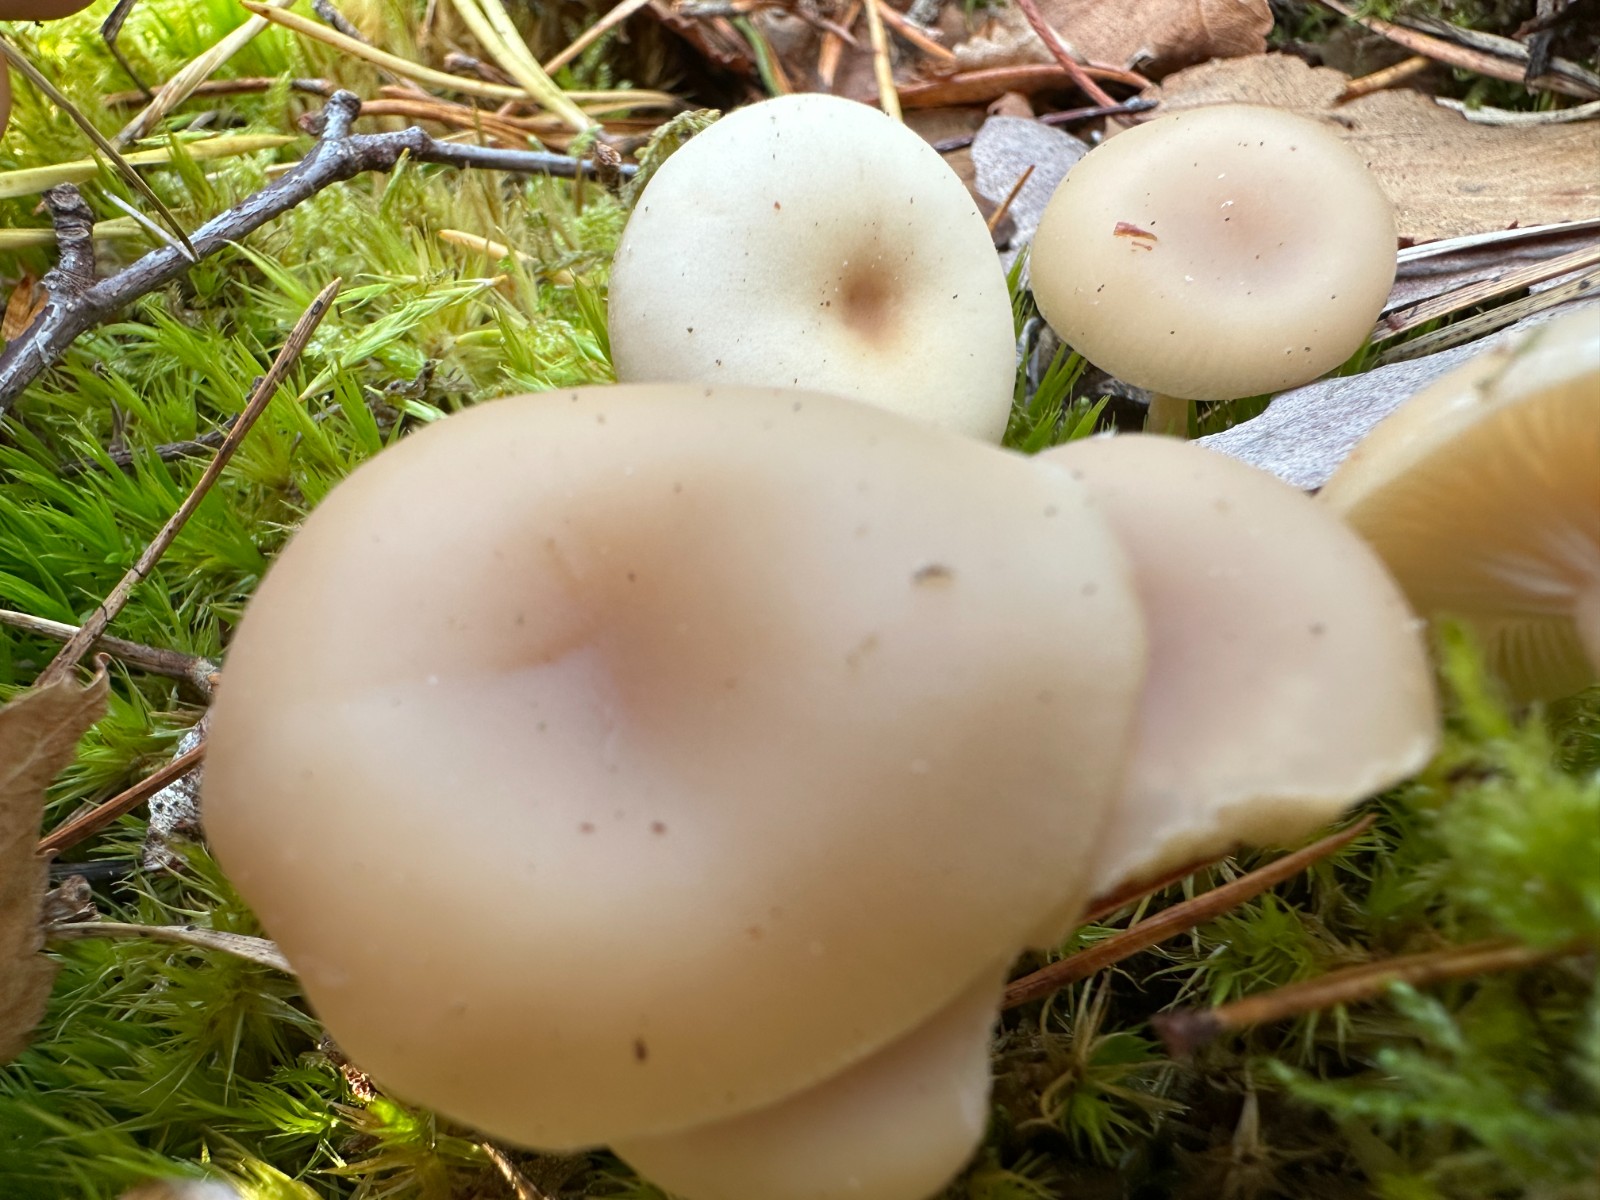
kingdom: Fungi
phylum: Basidiomycota
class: Agaricomycetes
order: Agaricales
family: Tricholomataceae
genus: Clitocybe
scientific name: Clitocybe
